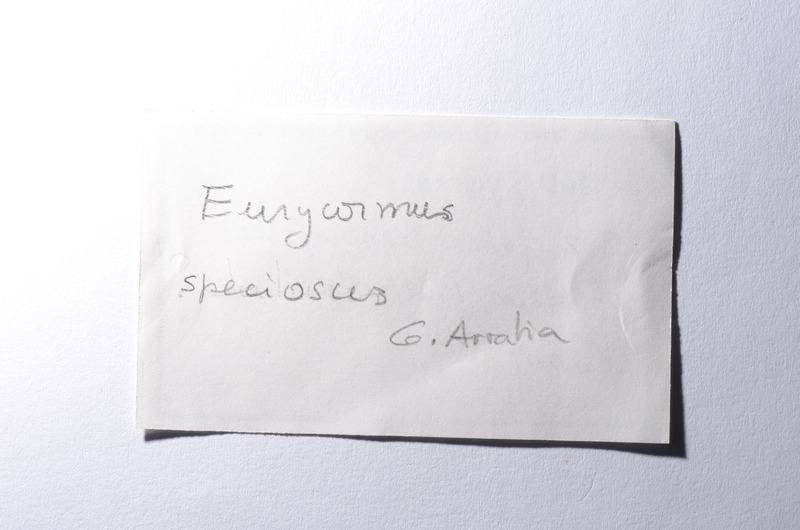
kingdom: Animalia
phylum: Chordata
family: Eurycormidae
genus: Eurycormus
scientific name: Eurycormus speciosus
